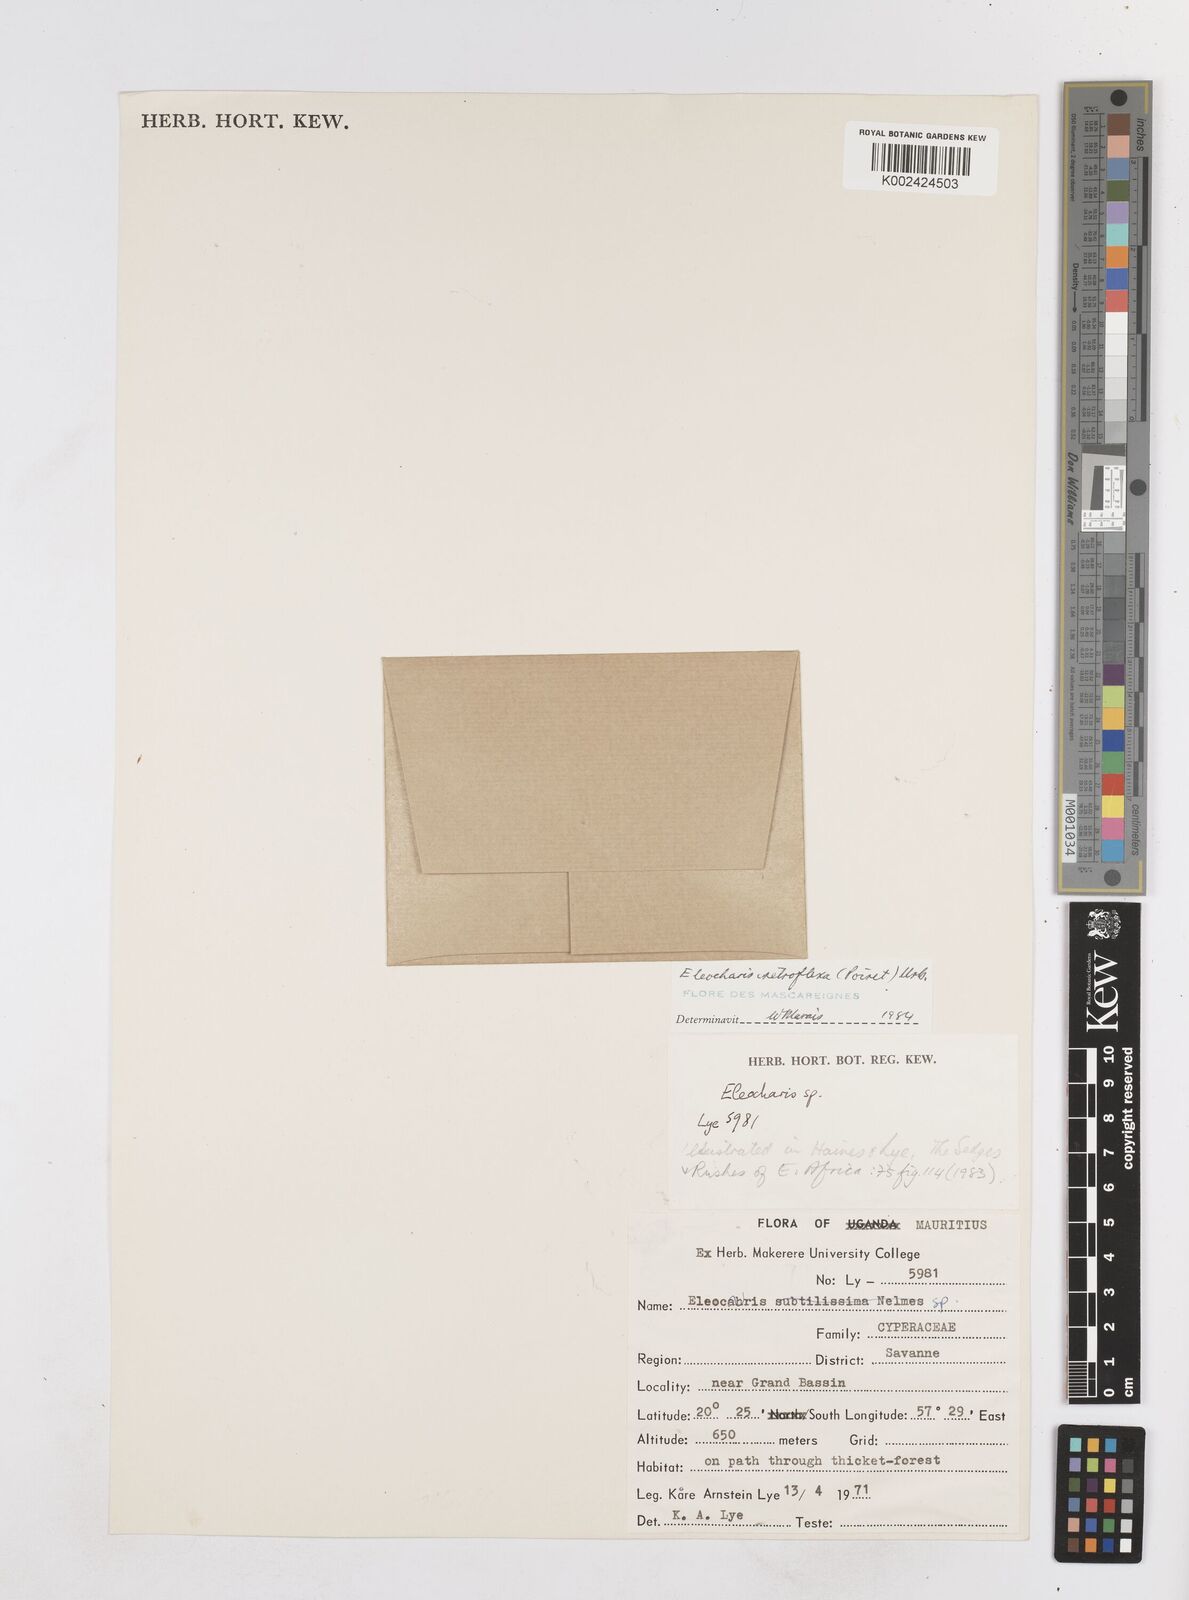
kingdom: Plantae
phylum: Tracheophyta
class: Liliopsida
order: Poales
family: Cyperaceae
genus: Eleocharis
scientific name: Eleocharis retroflexa
